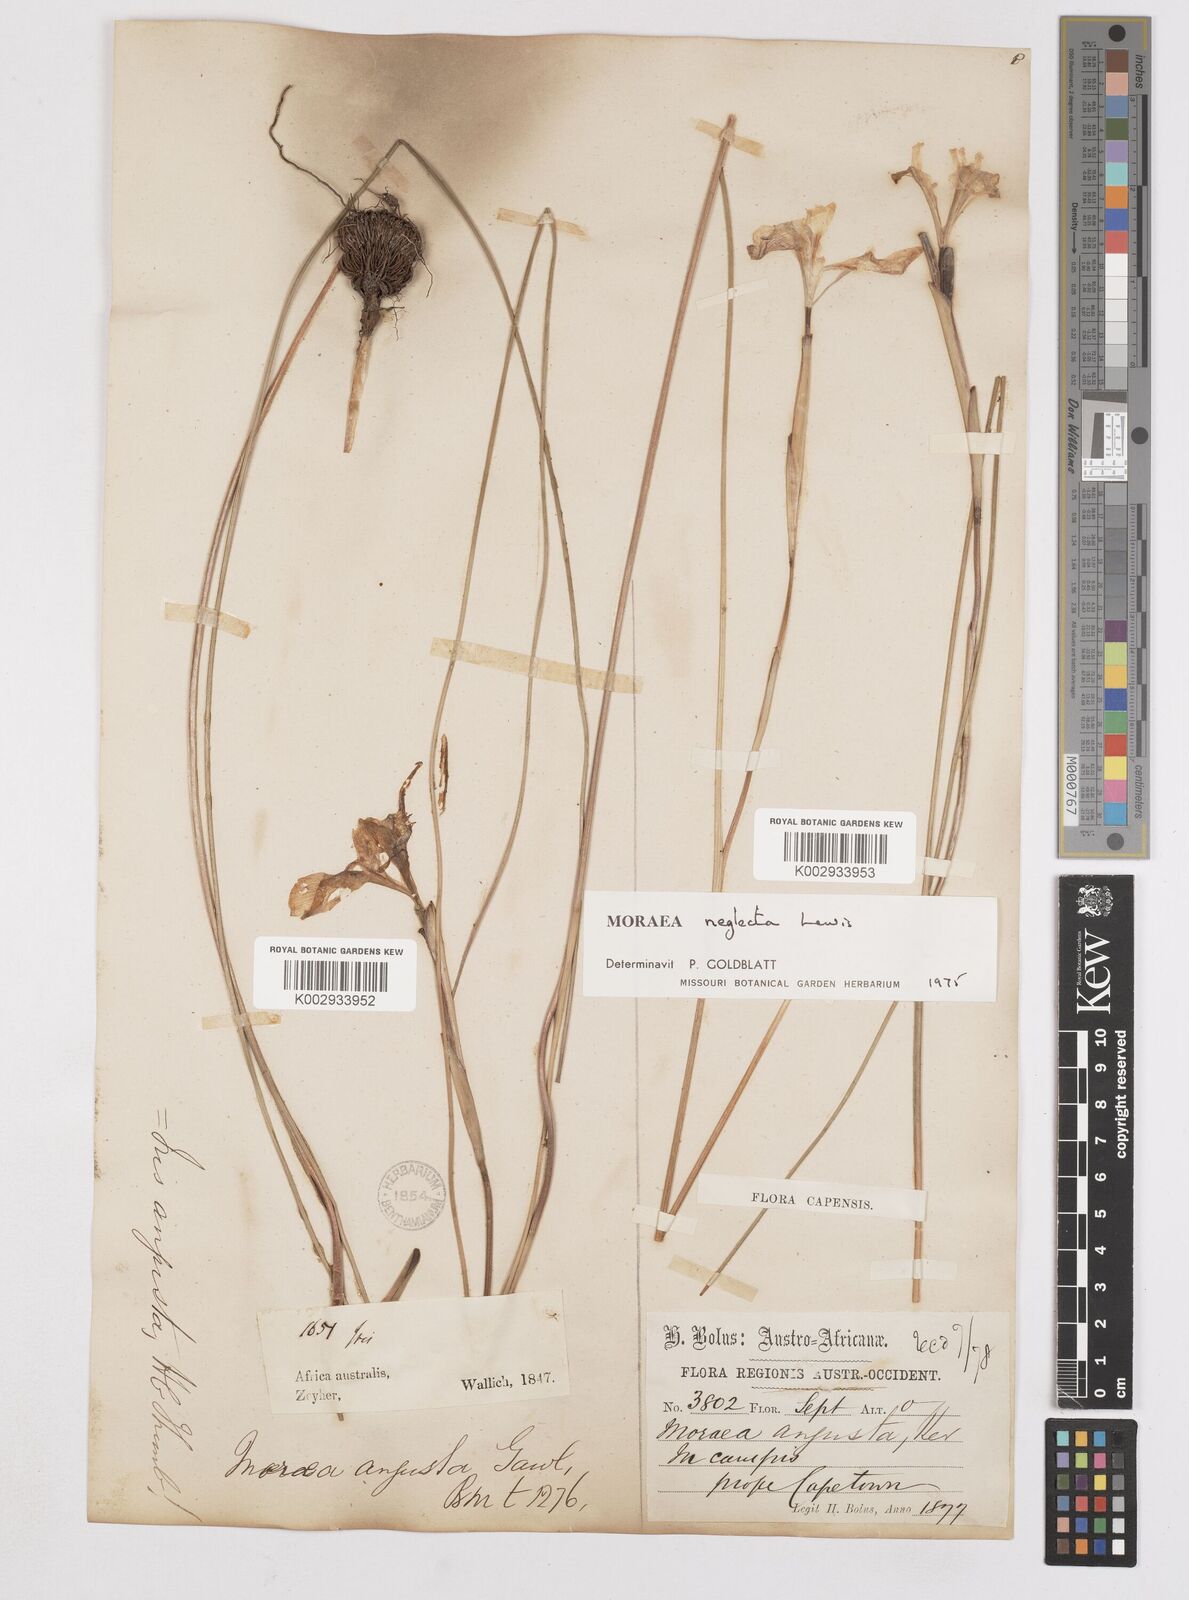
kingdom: Plantae
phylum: Tracheophyta
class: Liliopsida
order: Asparagales
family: Iridaceae
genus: Moraea
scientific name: Moraea neglecta
